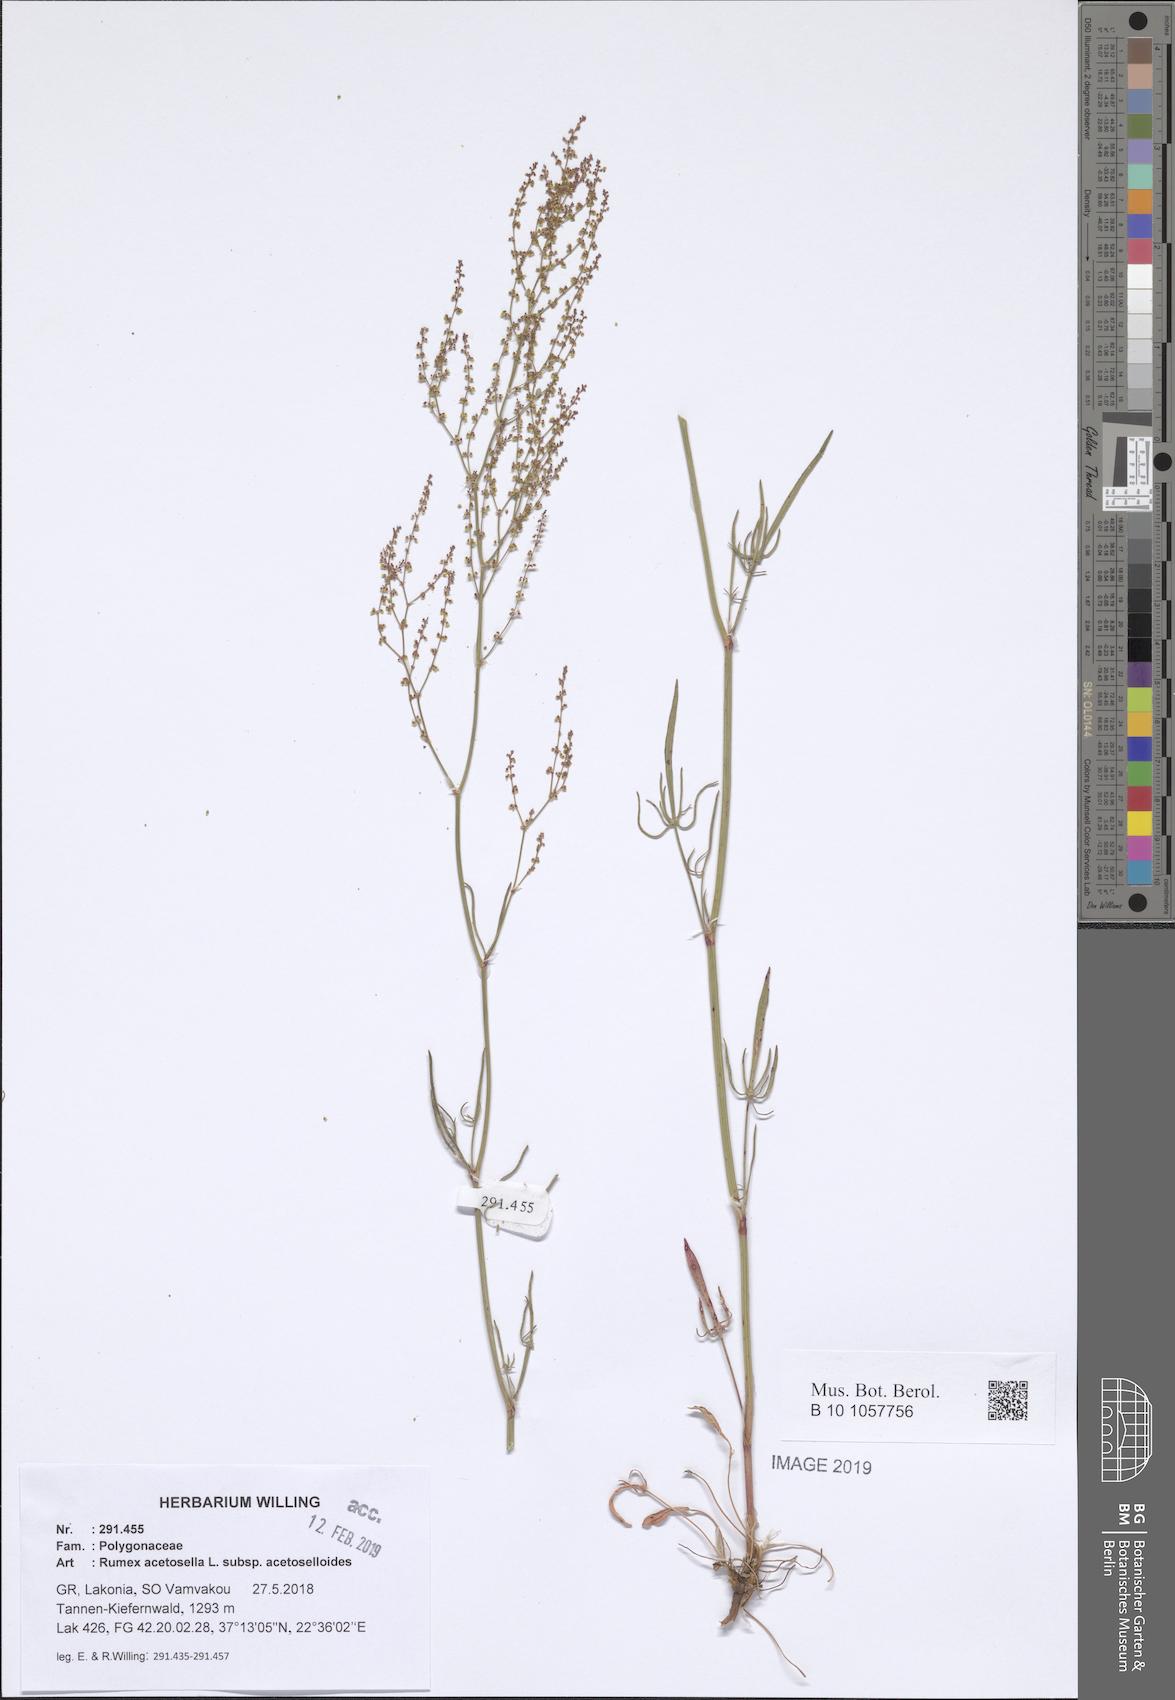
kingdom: Plantae
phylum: Tracheophyta
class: Magnoliopsida
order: Caryophyllales
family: Polygonaceae
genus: Rumex
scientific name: Rumex acetosella
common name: Common sheep sorrel
